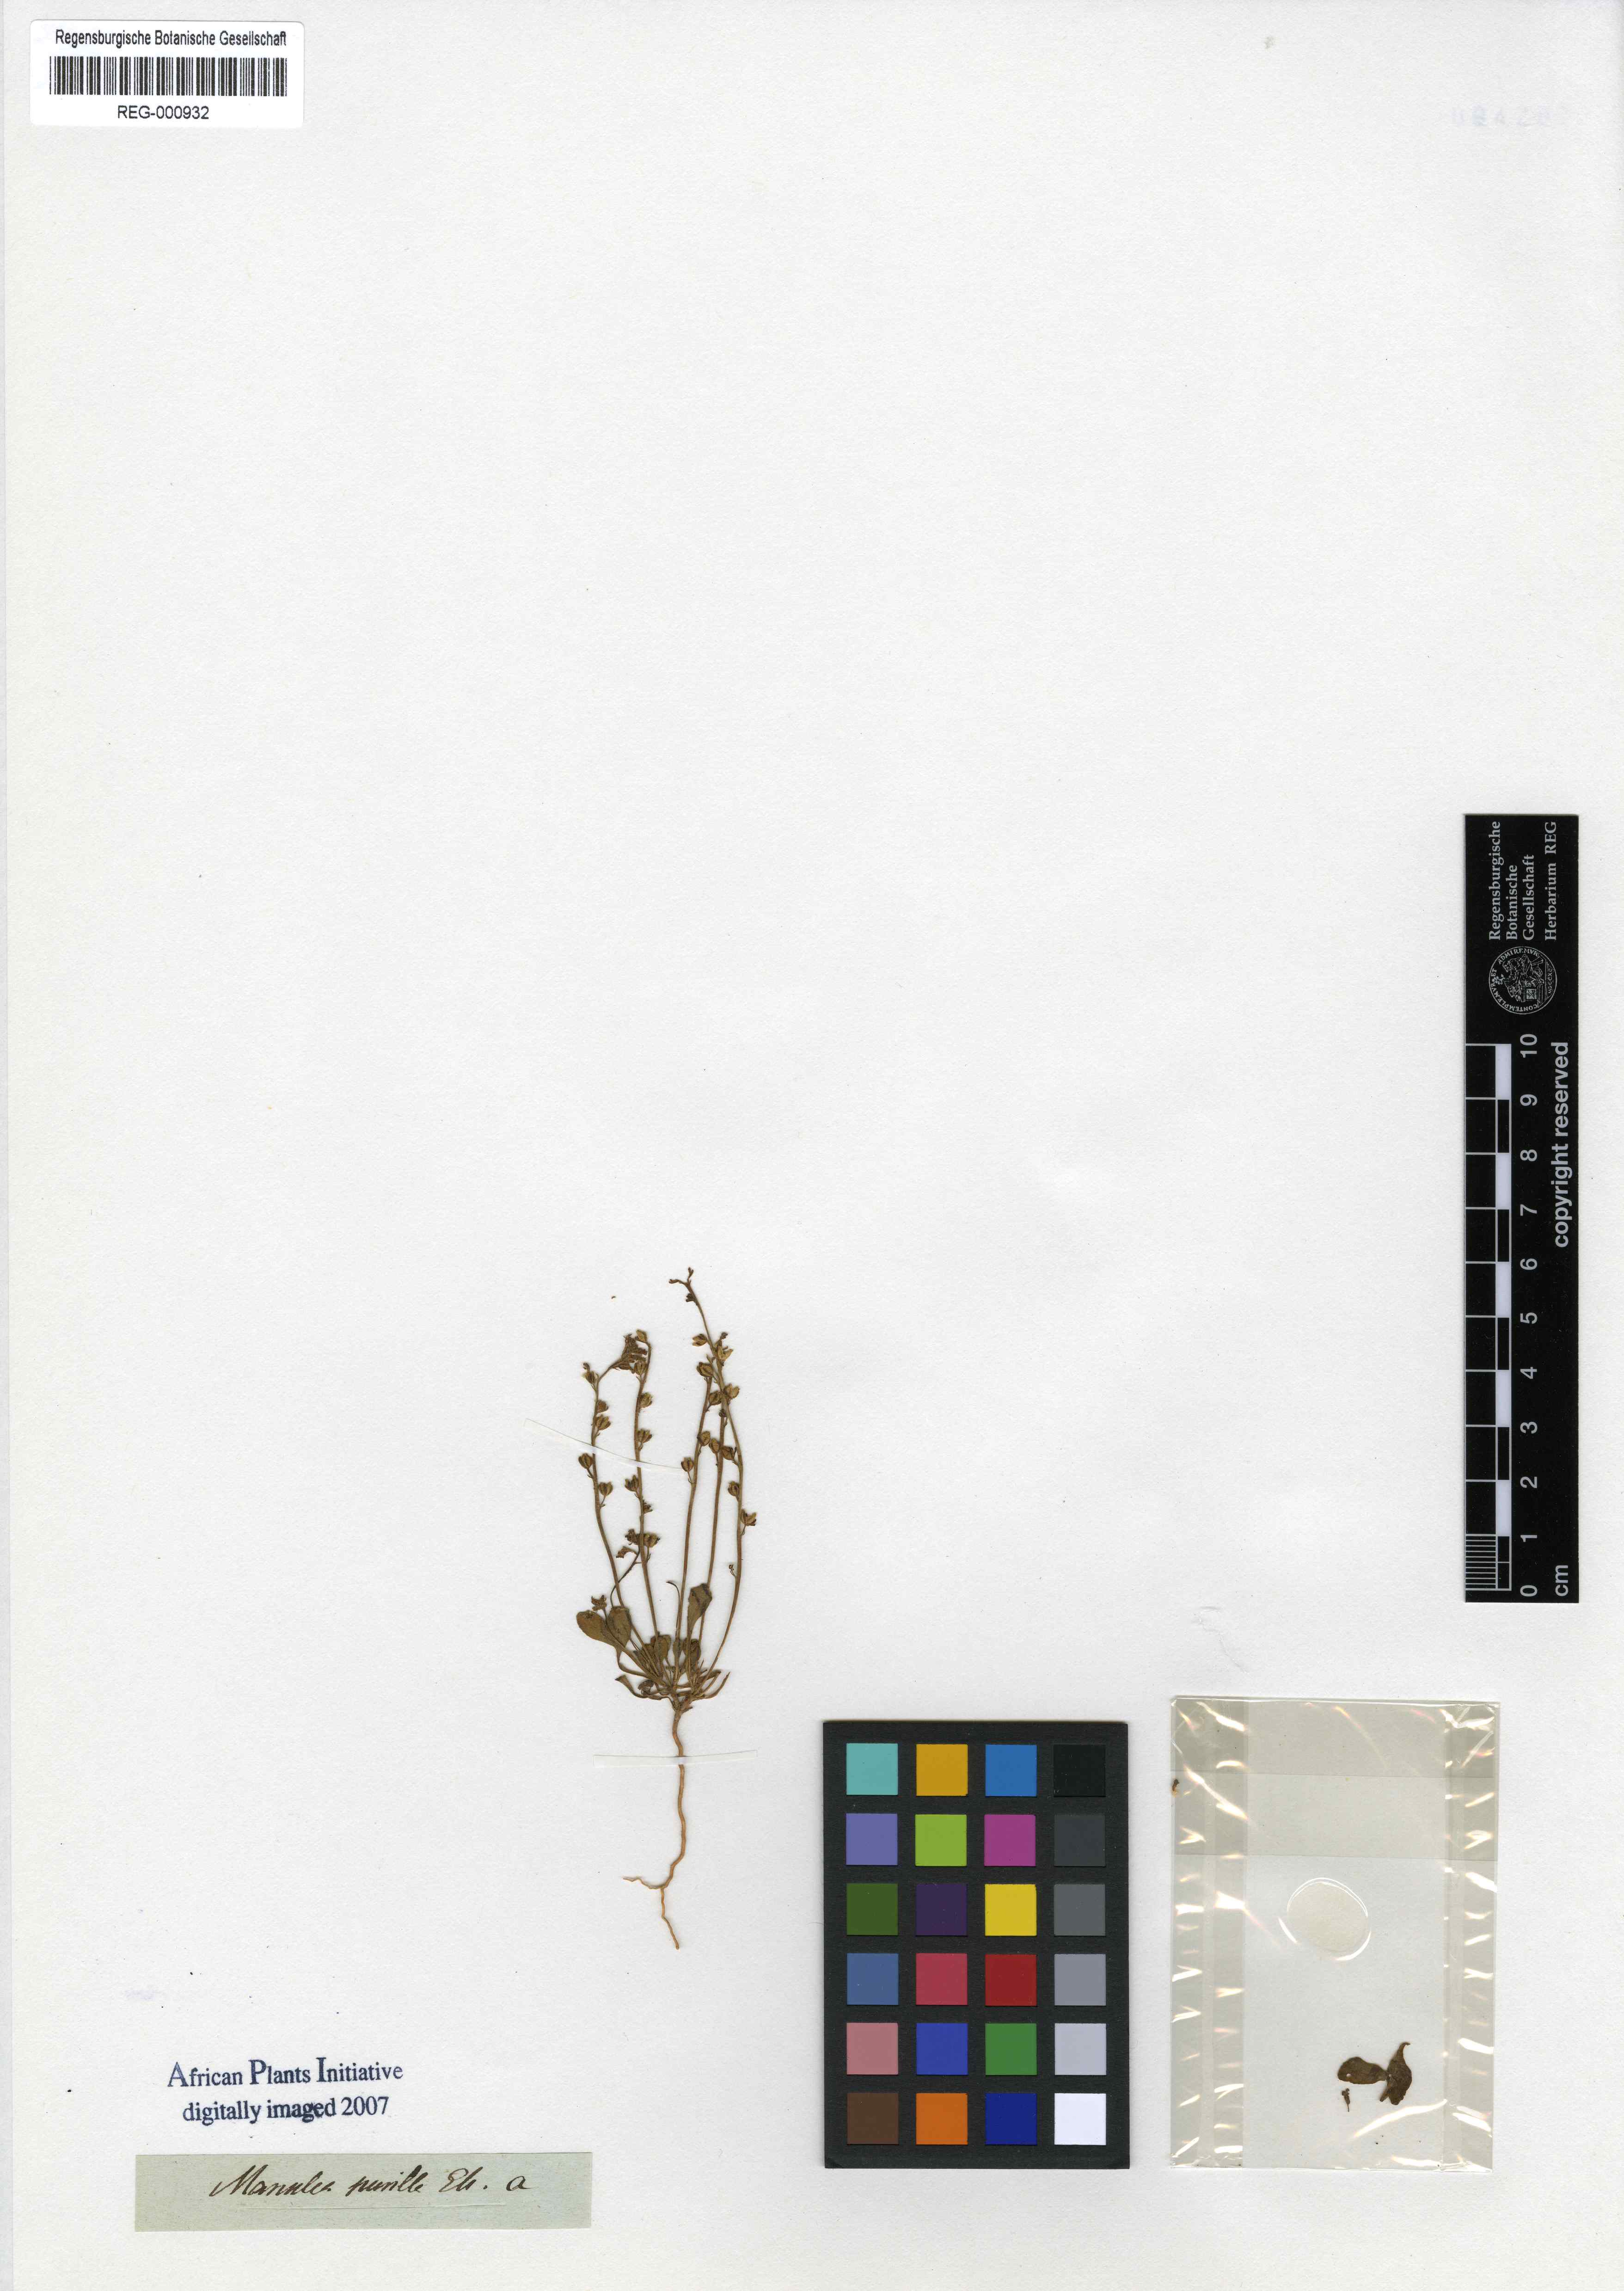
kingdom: Plantae
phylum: Tracheophyta
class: Magnoliopsida
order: Lamiales
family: Scrophulariaceae
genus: Manulea
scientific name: Manulea pusilla
